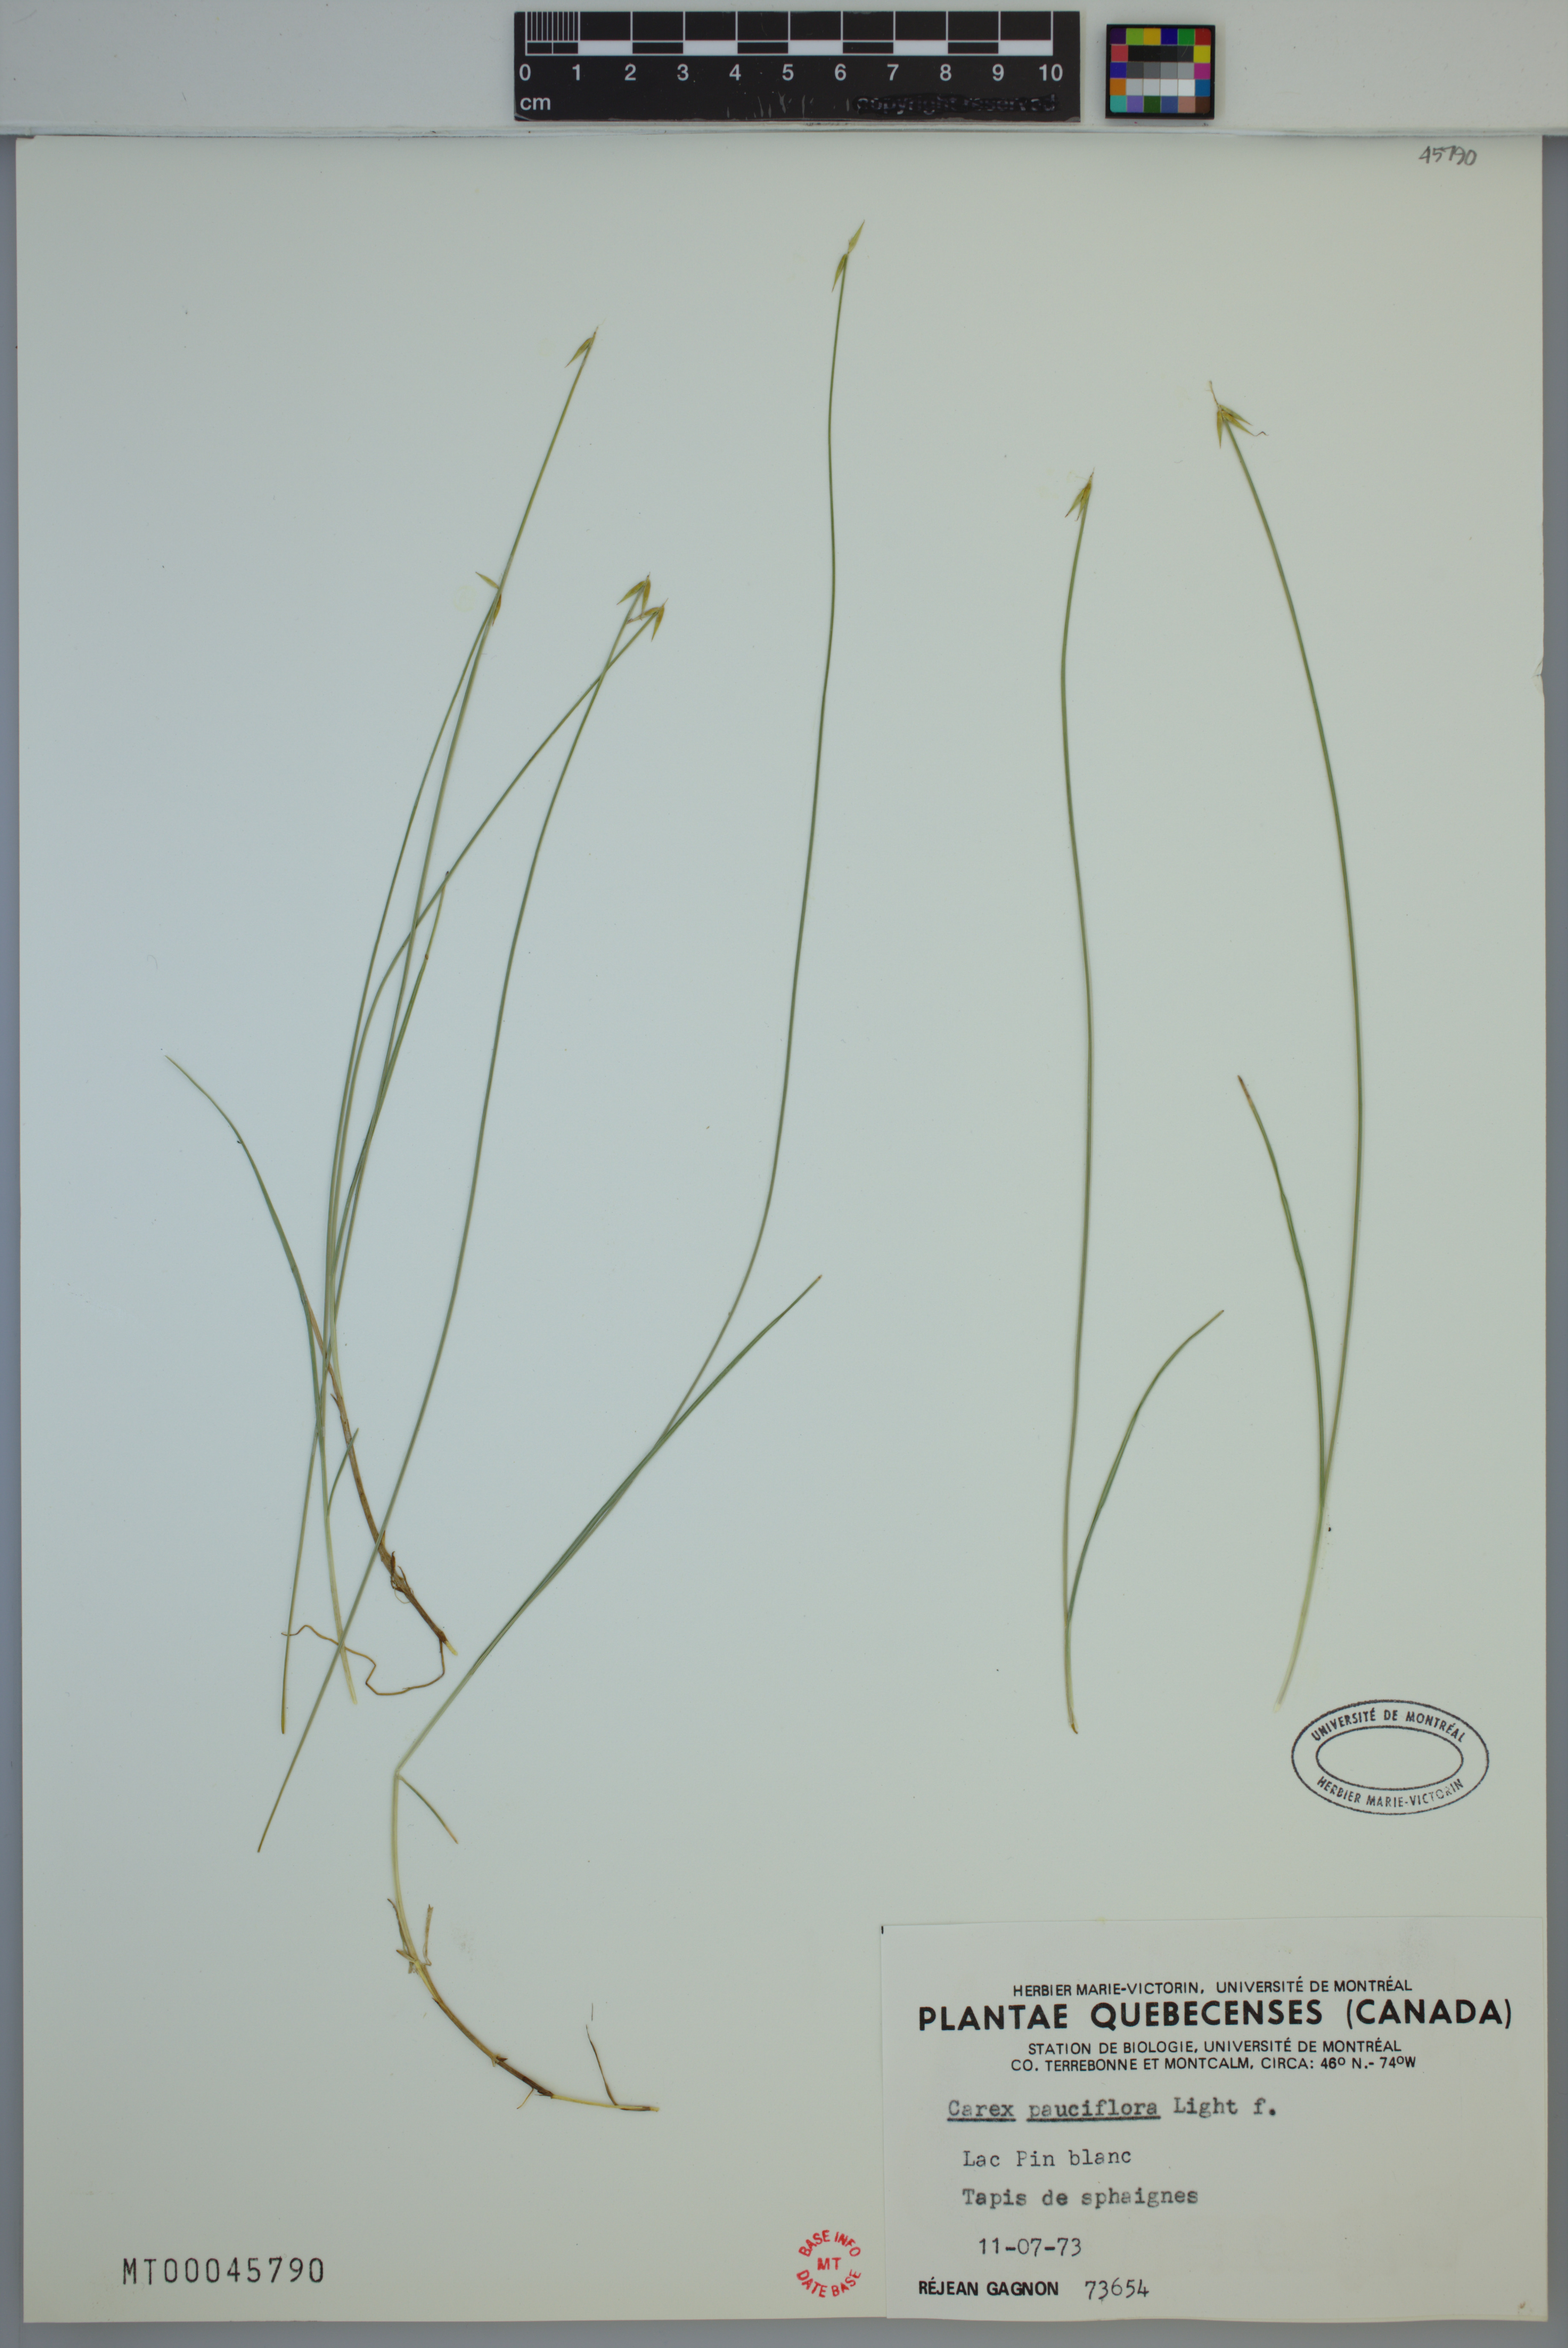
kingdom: Plantae
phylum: Tracheophyta
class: Liliopsida
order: Poales
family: Cyperaceae
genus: Carex
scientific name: Carex pauciflora
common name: Few-flowered sedge
